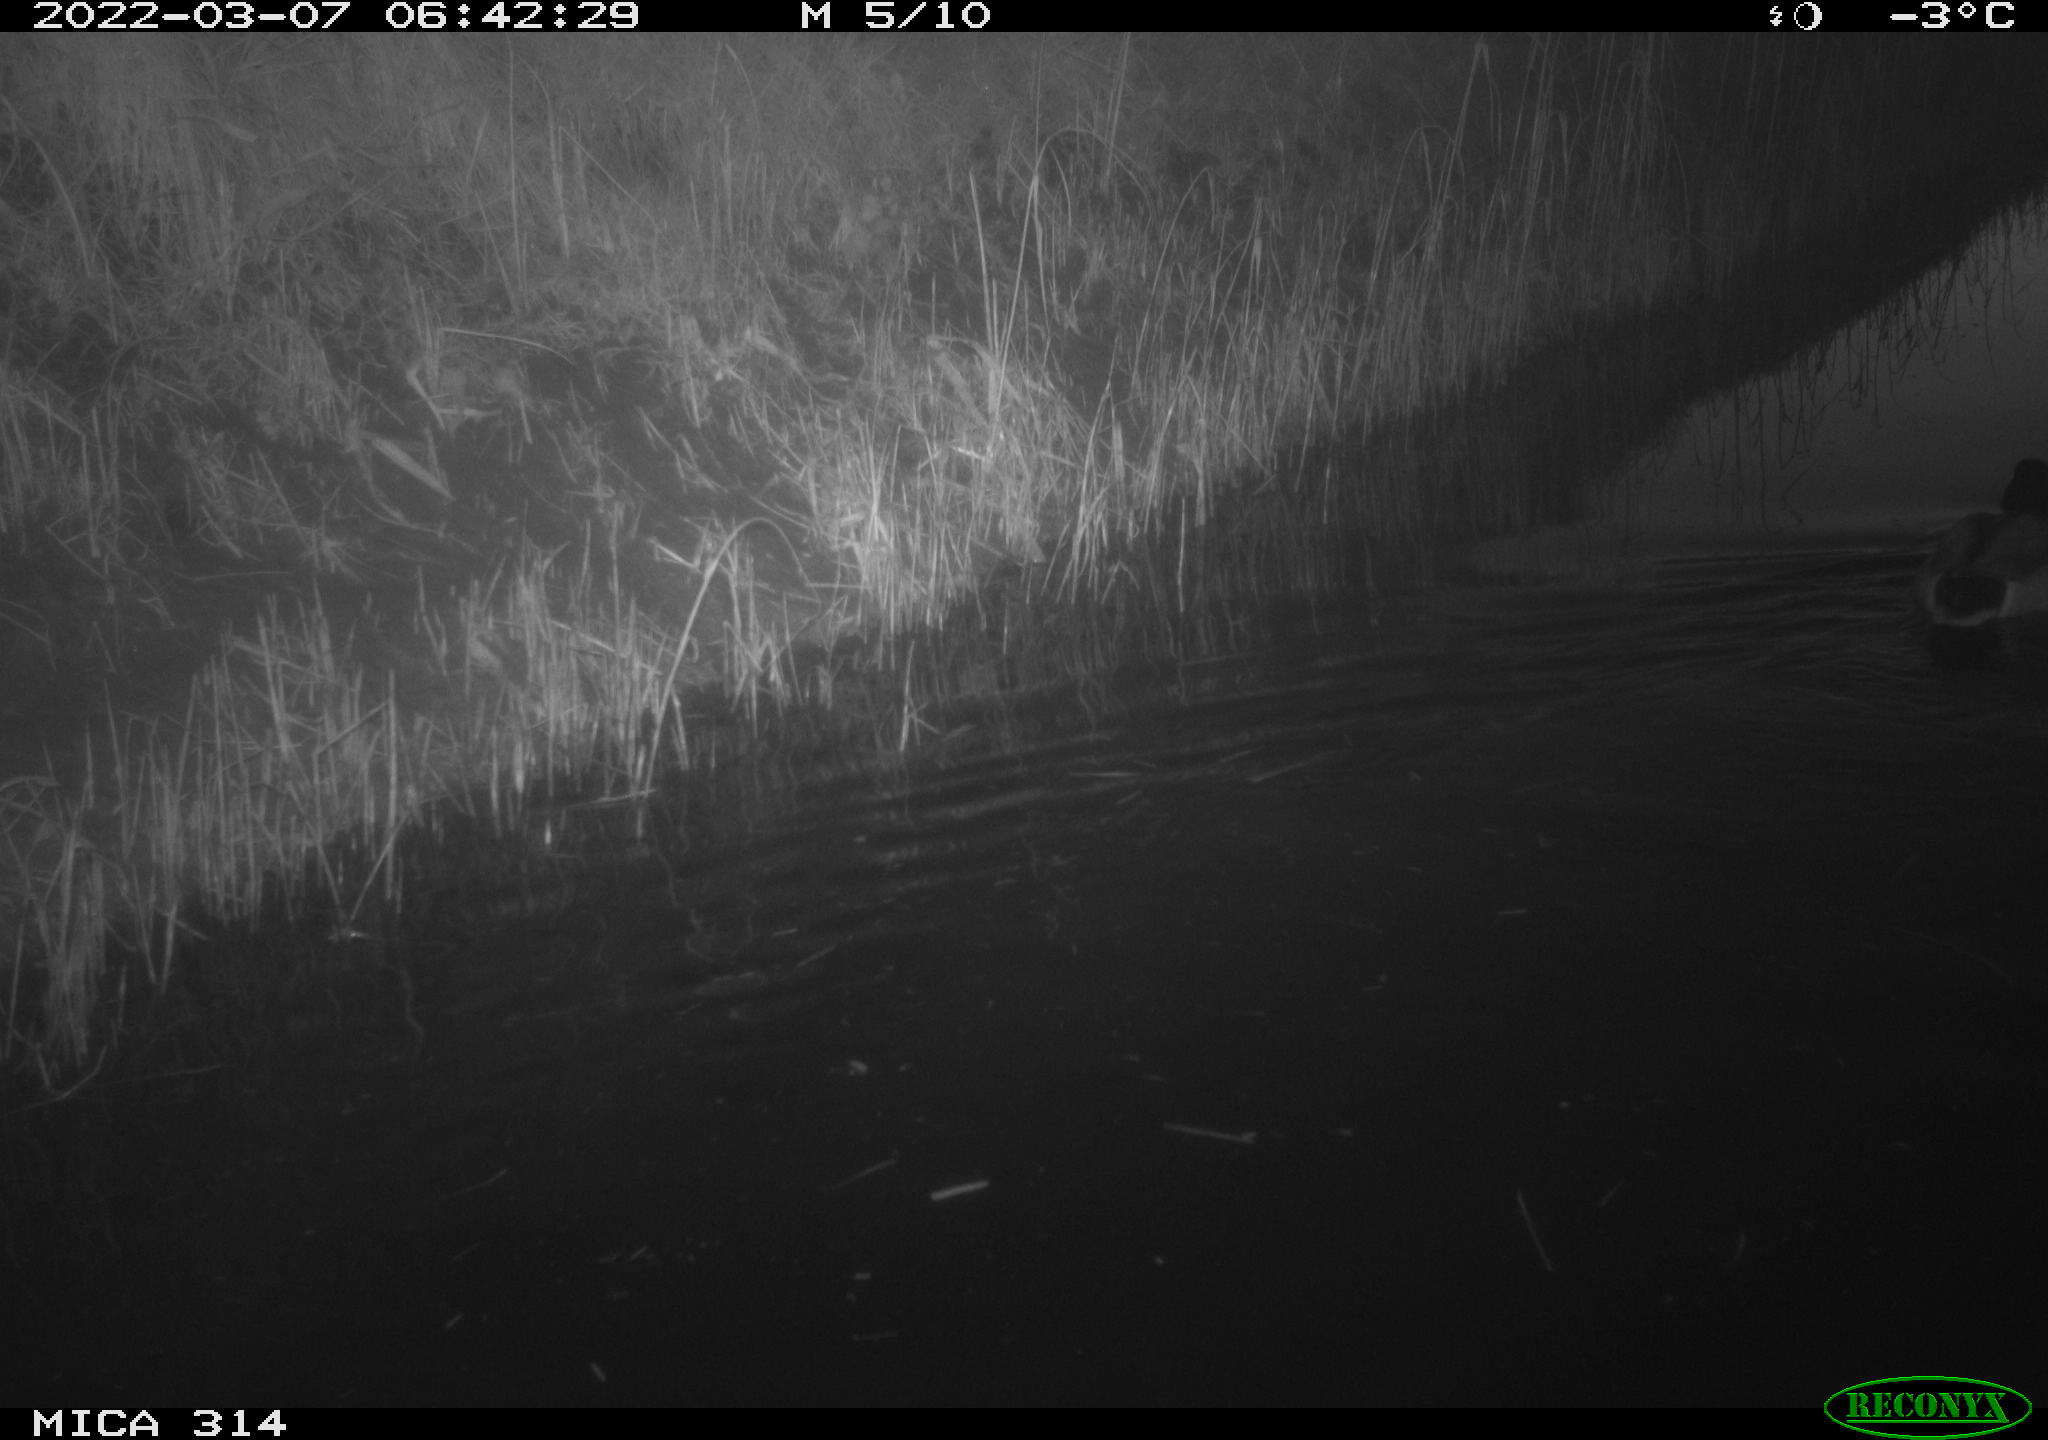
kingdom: Animalia
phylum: Chordata
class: Aves
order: Anseriformes
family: Anatidae
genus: Anas
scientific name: Anas platyrhynchos
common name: Mallard
